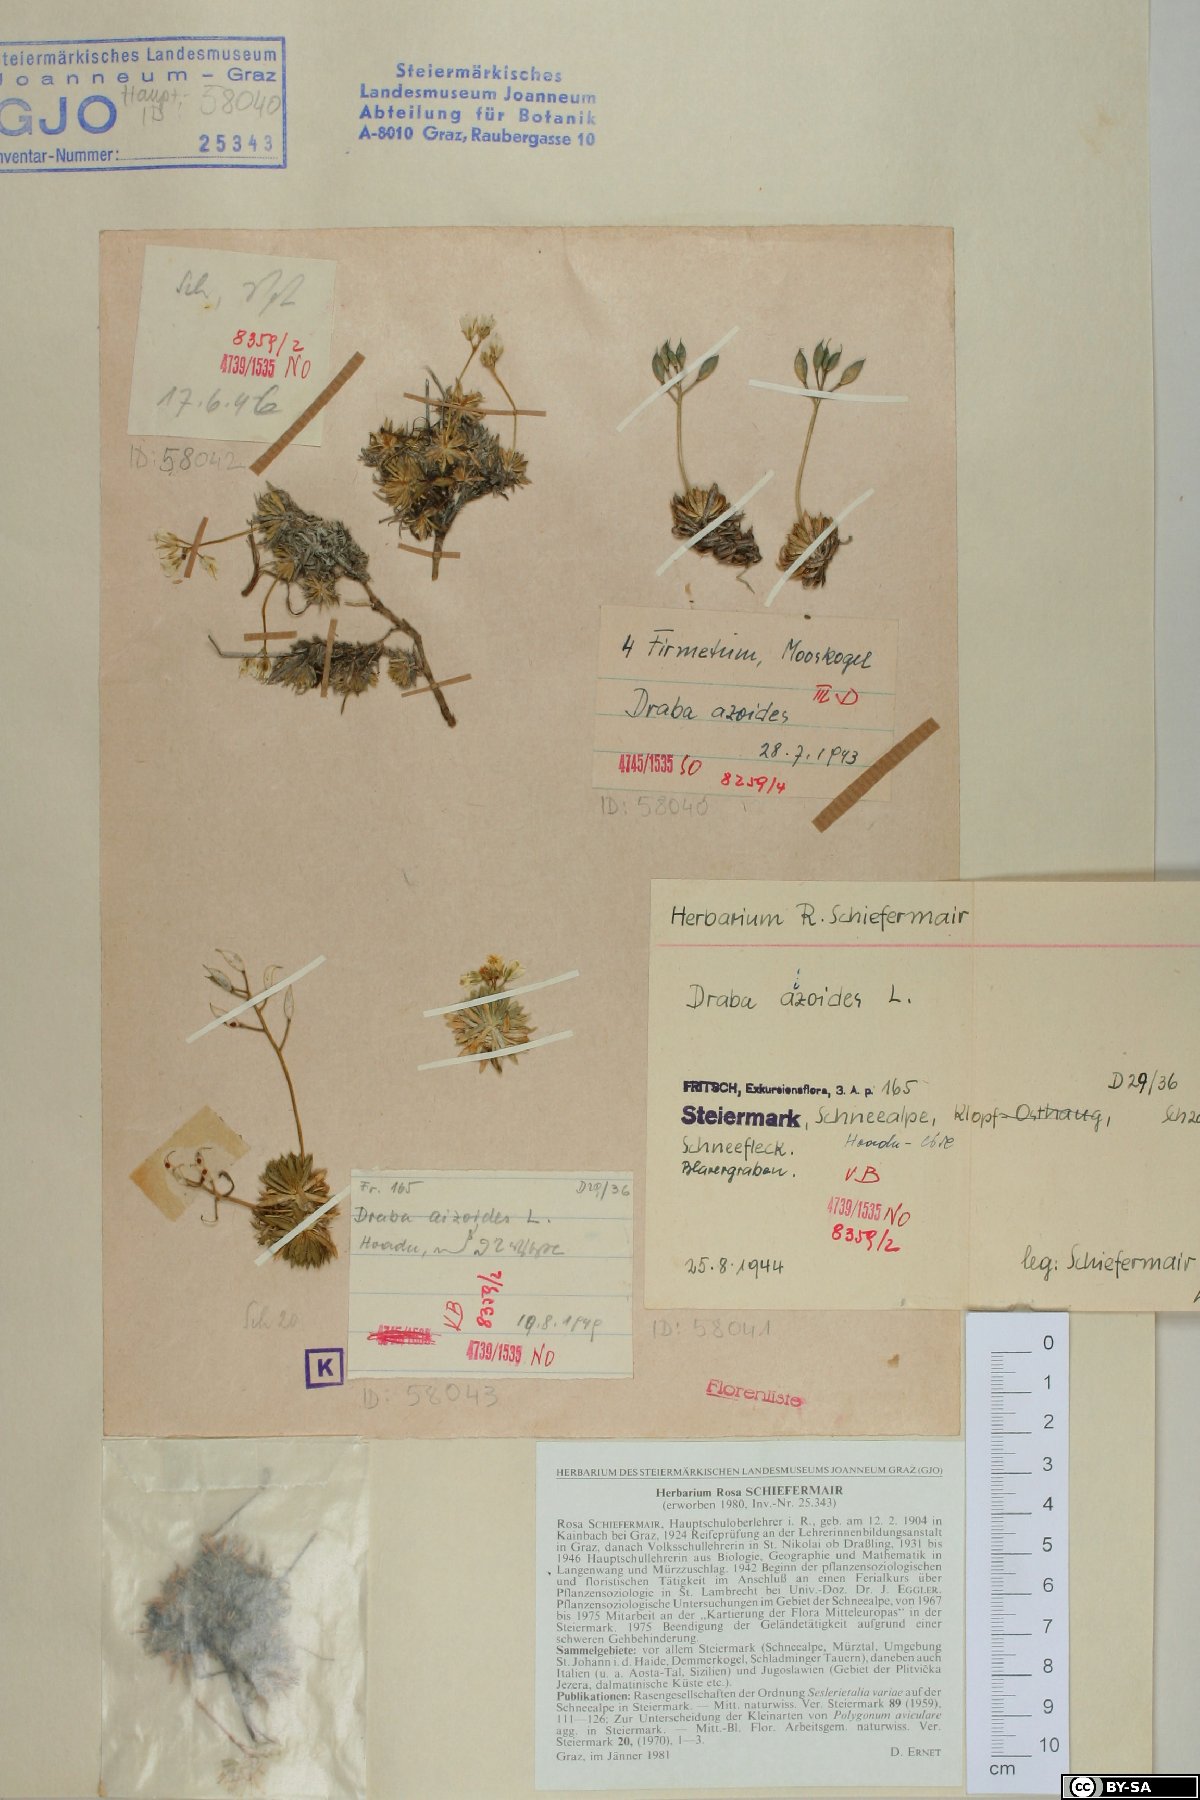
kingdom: Plantae
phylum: Tracheophyta
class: Magnoliopsida
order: Brassicales
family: Brassicaceae
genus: Draba
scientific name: Draba aizoides
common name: Yellow whitlowgrass
